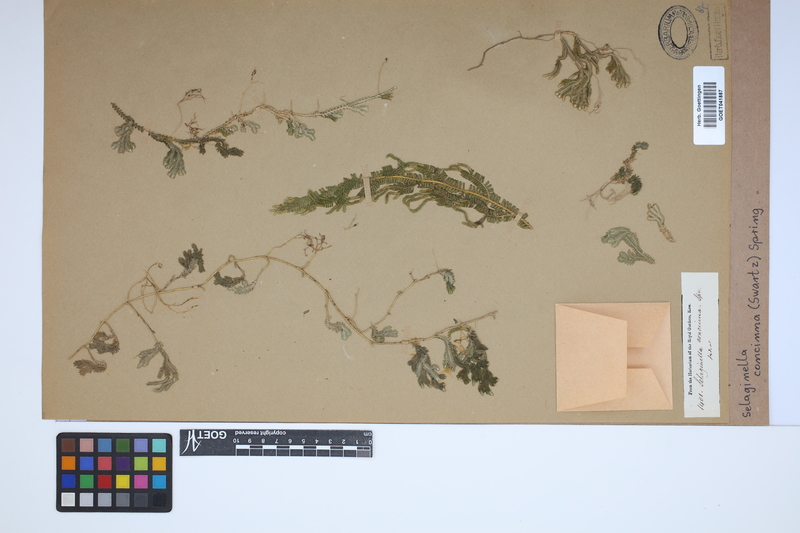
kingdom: Plantae
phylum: Tracheophyta
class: Lycopodiopsida
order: Selaginellales
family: Selaginellaceae
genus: Selaginella
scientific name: Selaginella concinna
